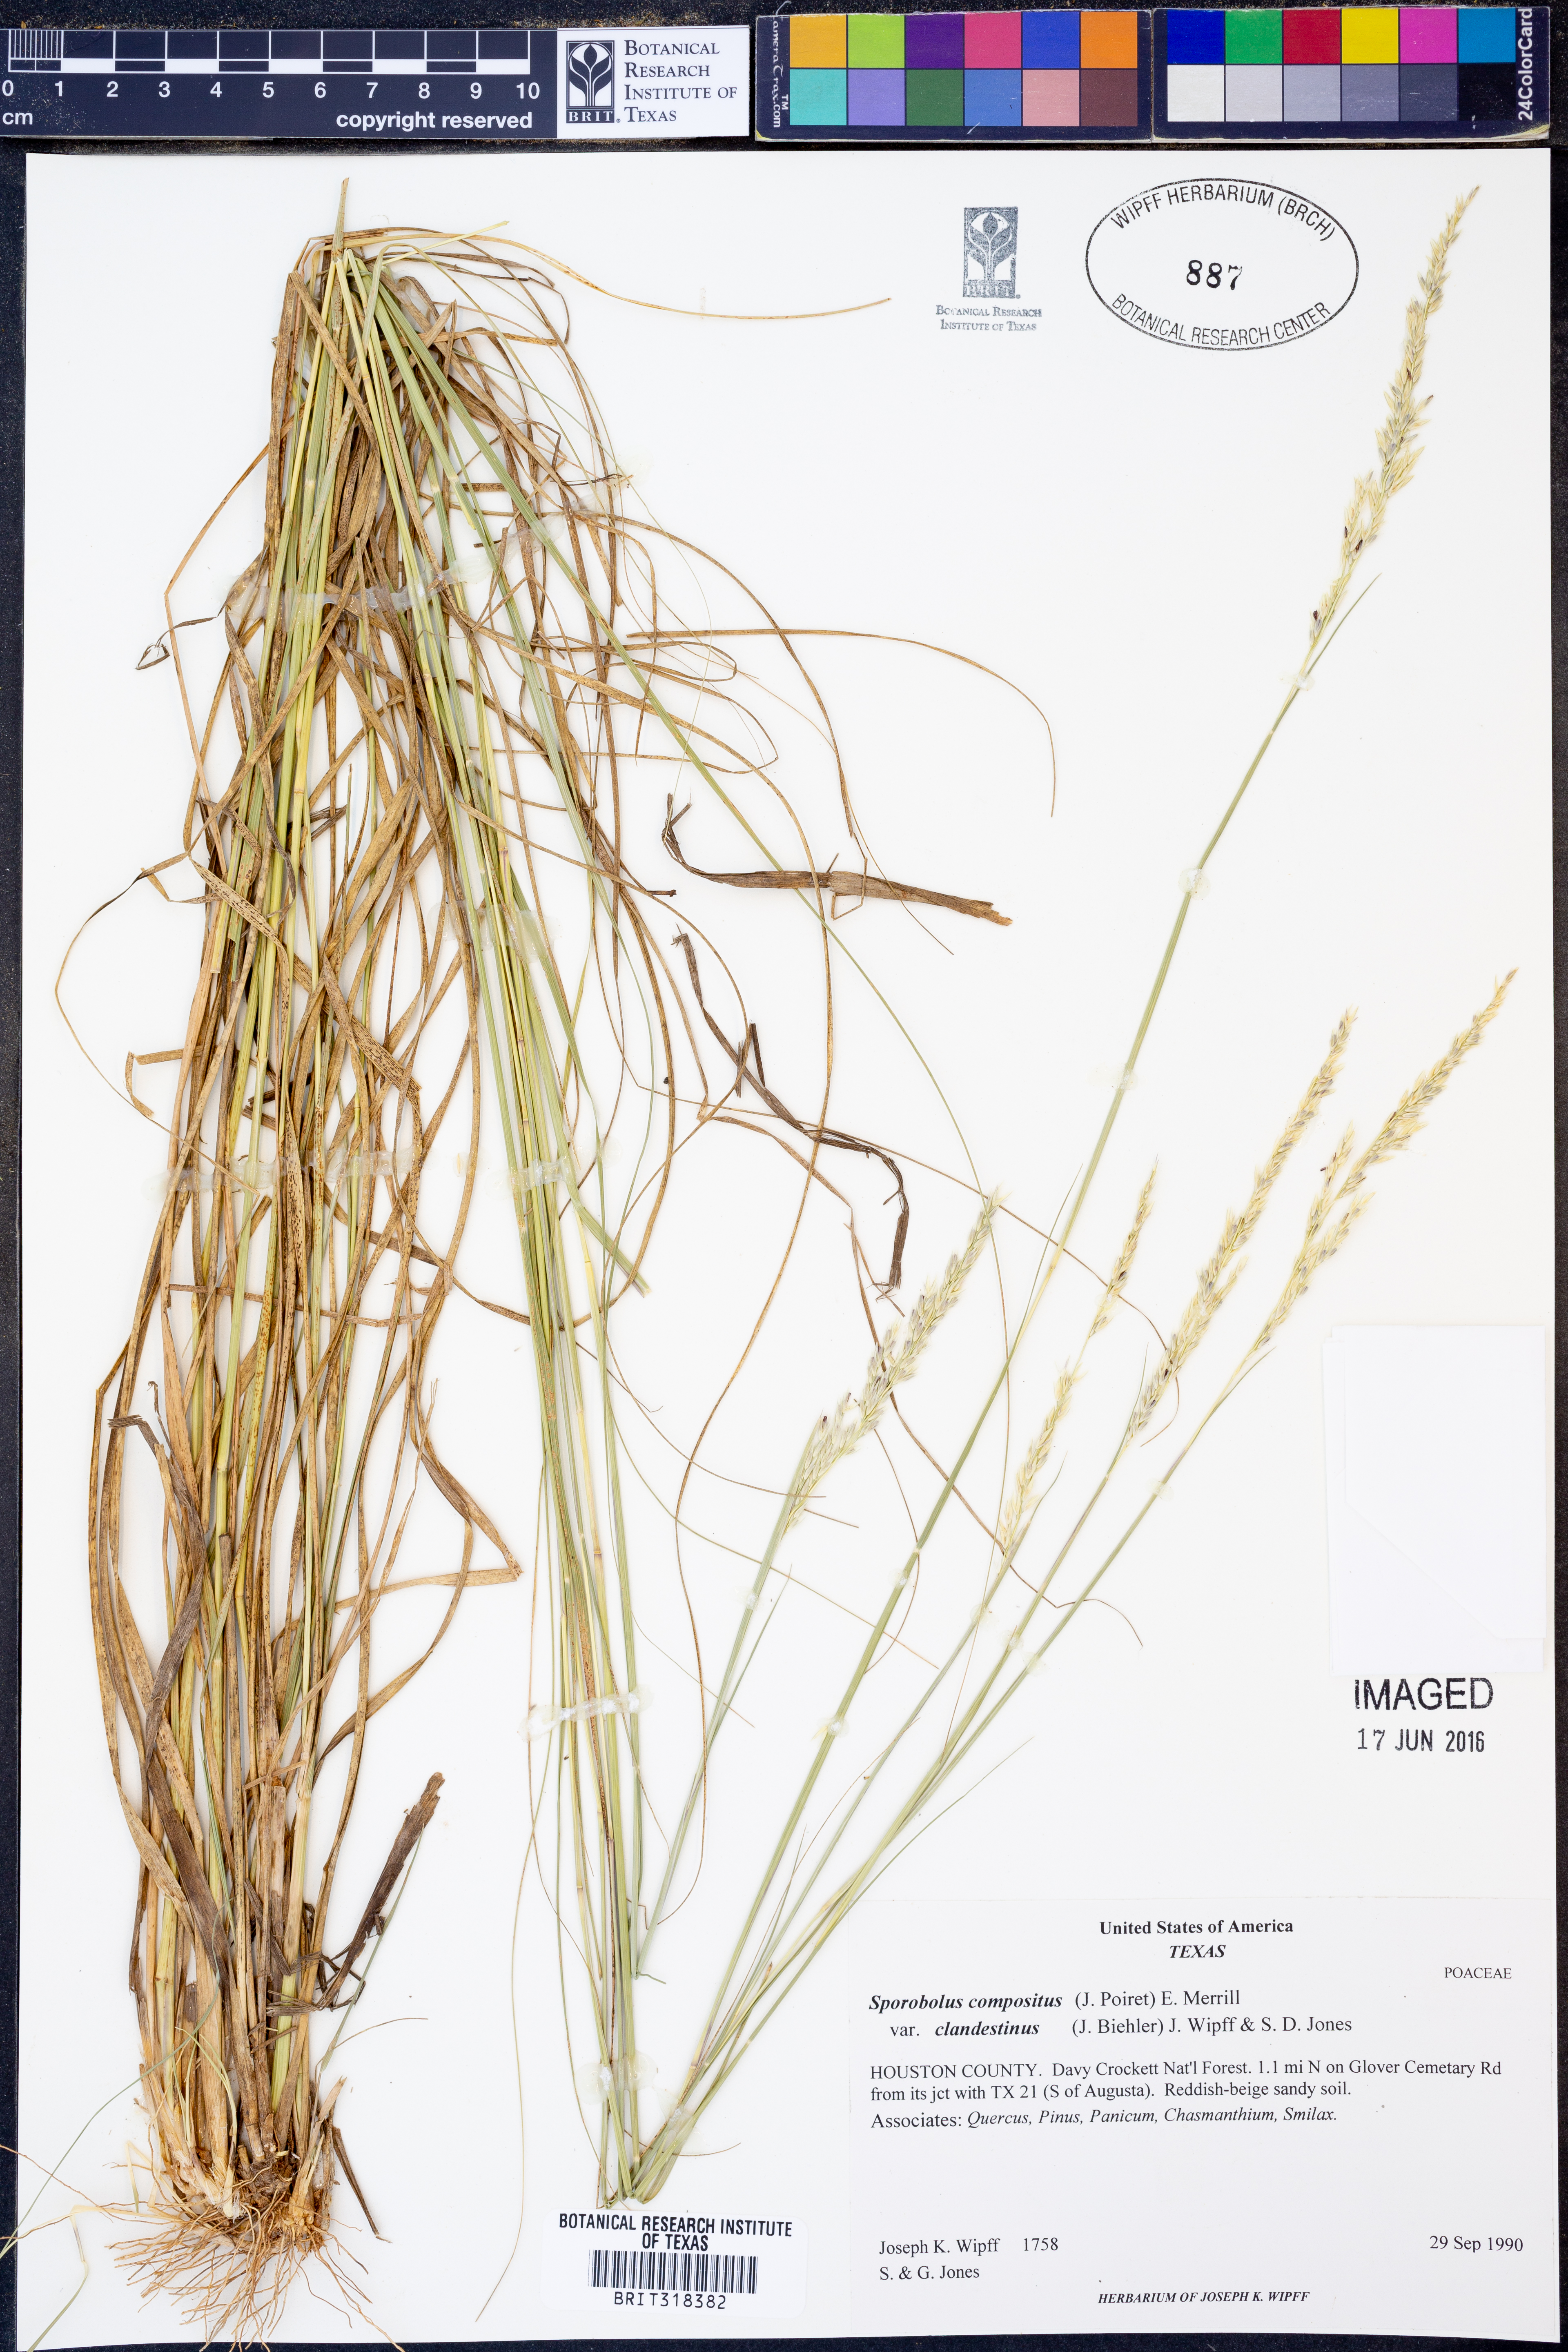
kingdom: Plantae
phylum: Tracheophyta
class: Liliopsida
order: Poales
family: Poaceae
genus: Sporobolus
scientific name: Sporobolus clandestinus
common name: Hidden dropseed
